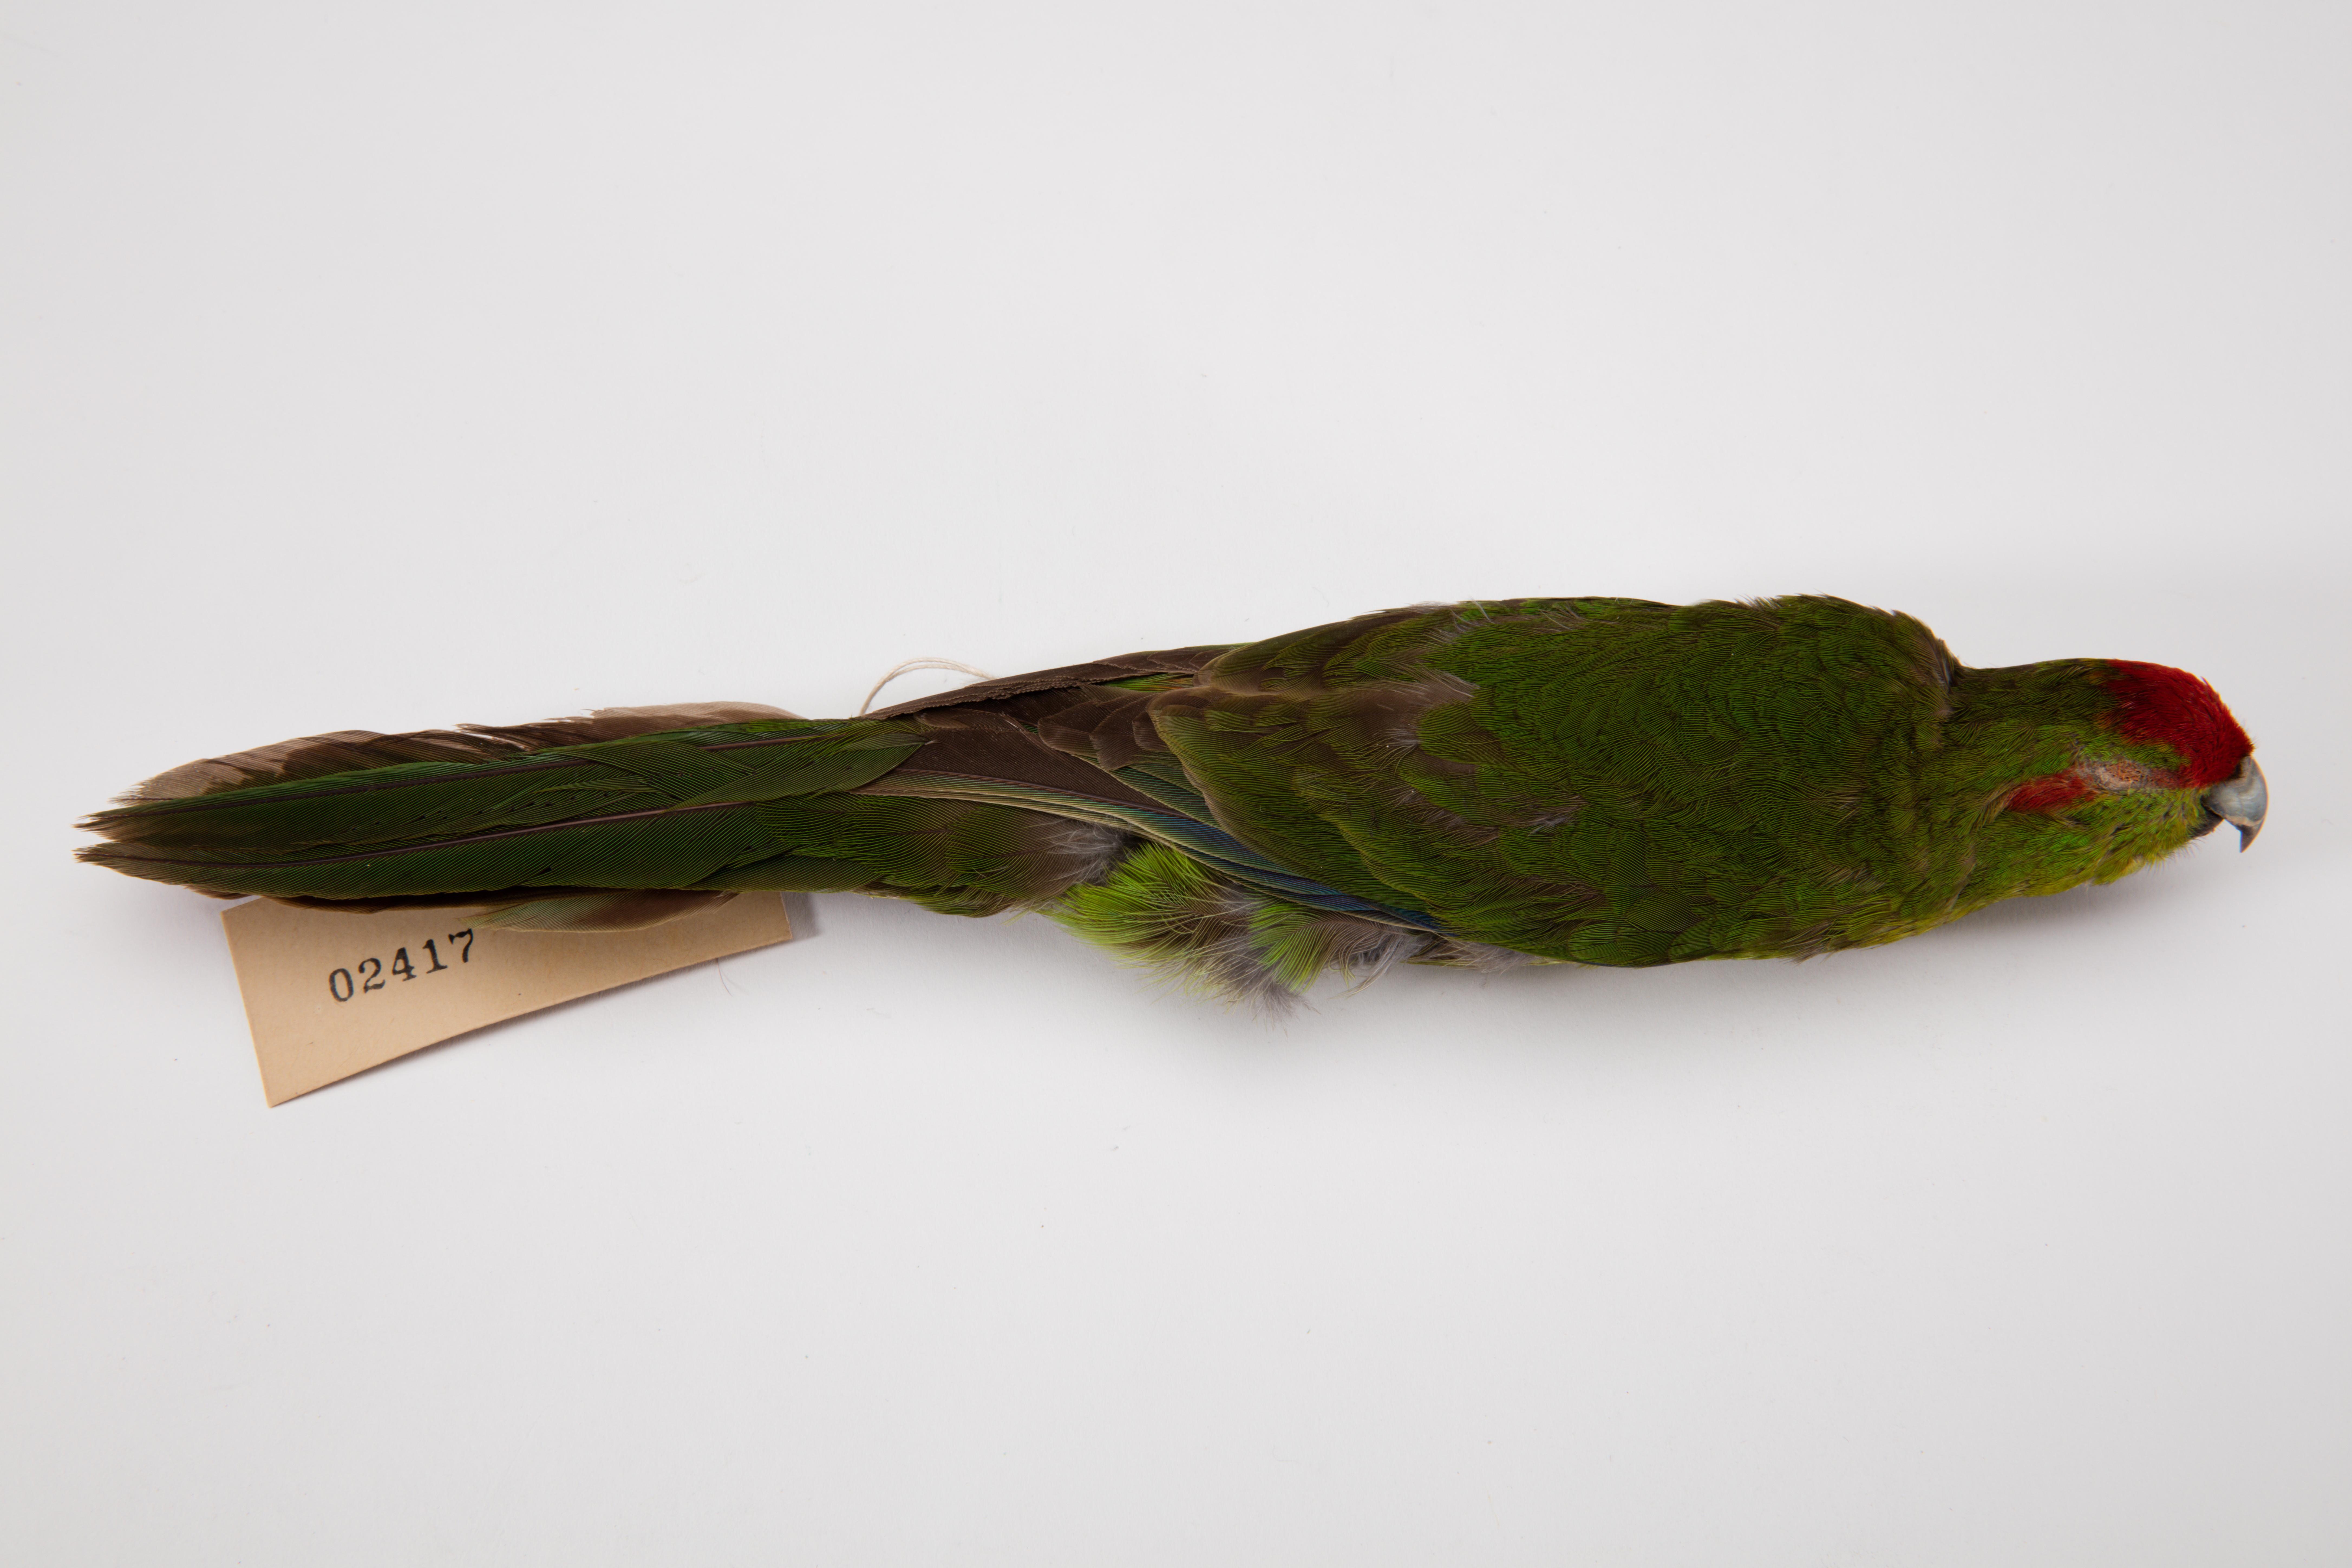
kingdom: Animalia
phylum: Chordata
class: Aves
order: Psittaciformes
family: Psittacidae
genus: Cyanoramphus
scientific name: Cyanoramphus novaezelandiae
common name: Red-fronted parakeet
